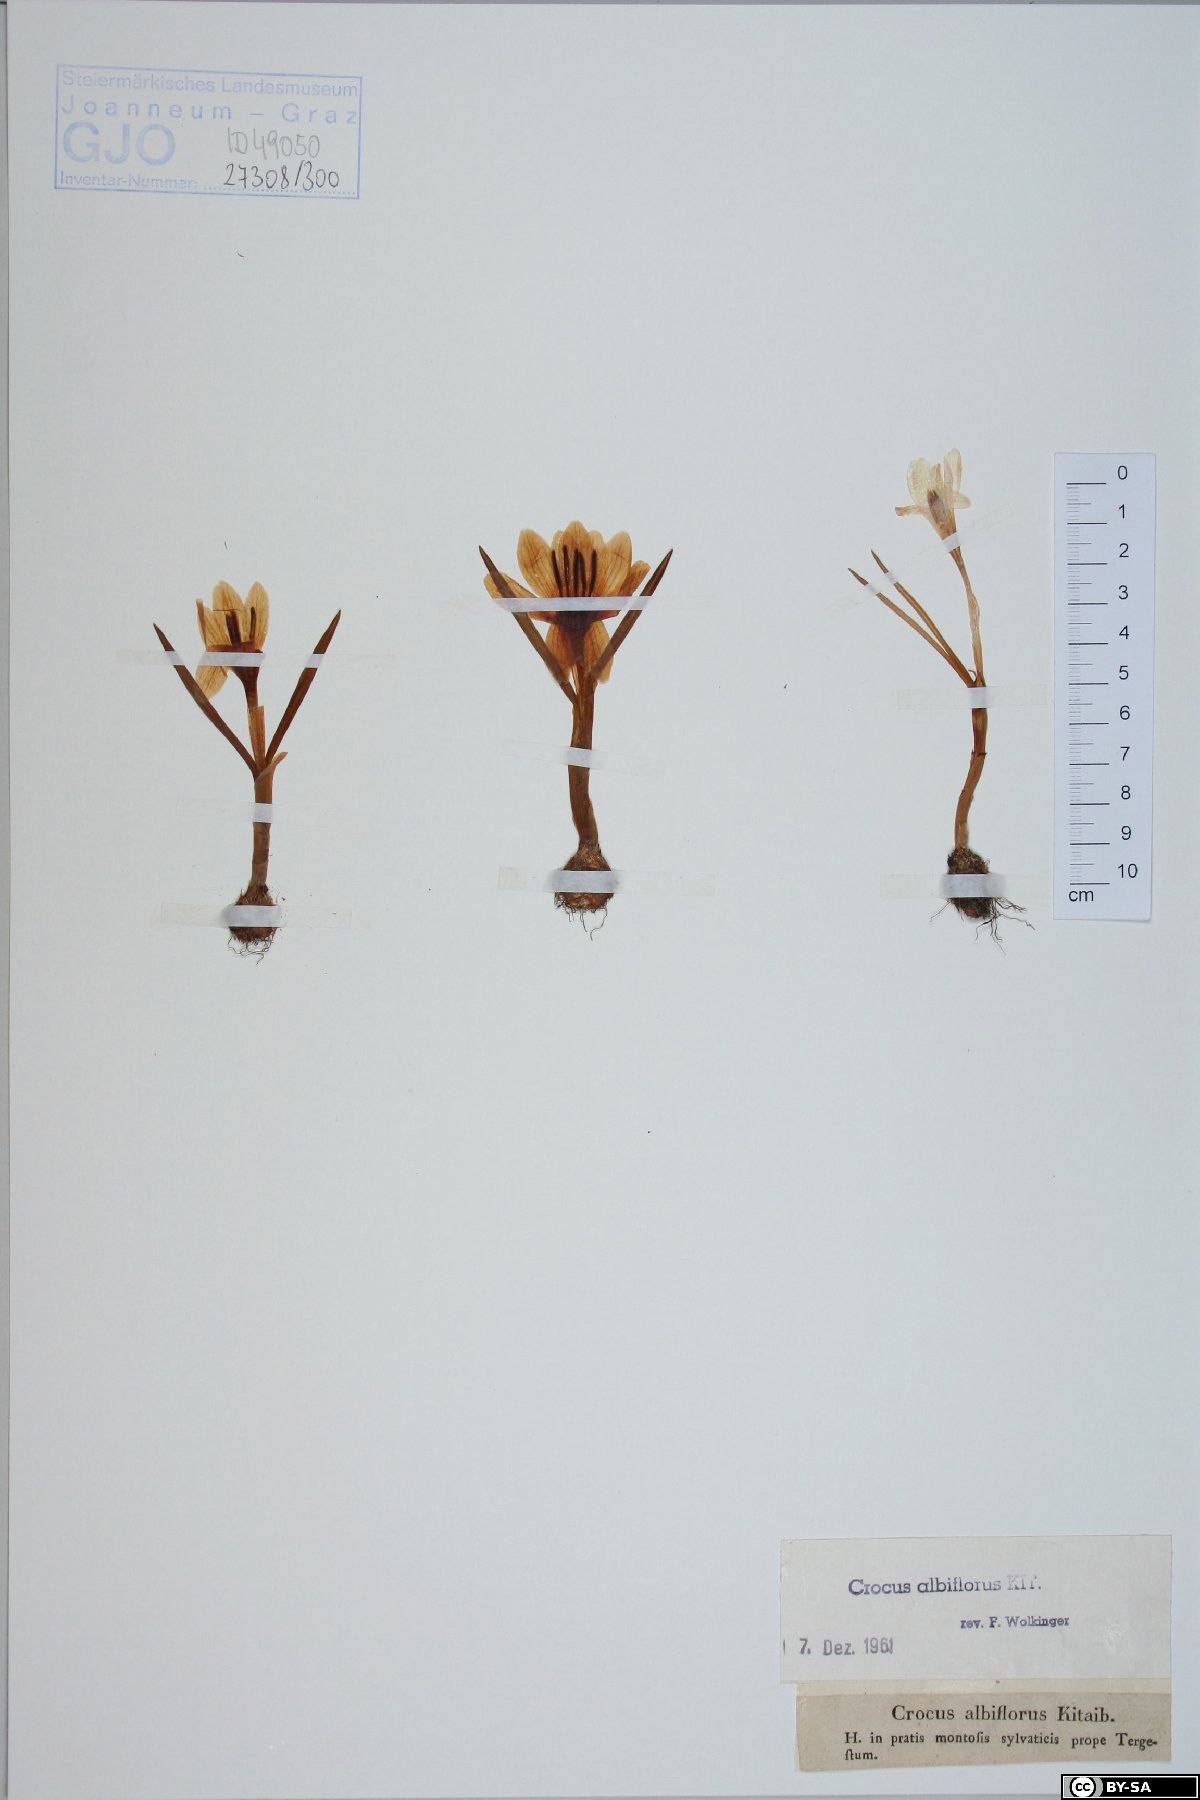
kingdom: Plantae
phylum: Tracheophyta
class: Liliopsida
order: Asparagales
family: Iridaceae
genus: Crocus
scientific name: Crocus vernus
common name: Spring crocus
